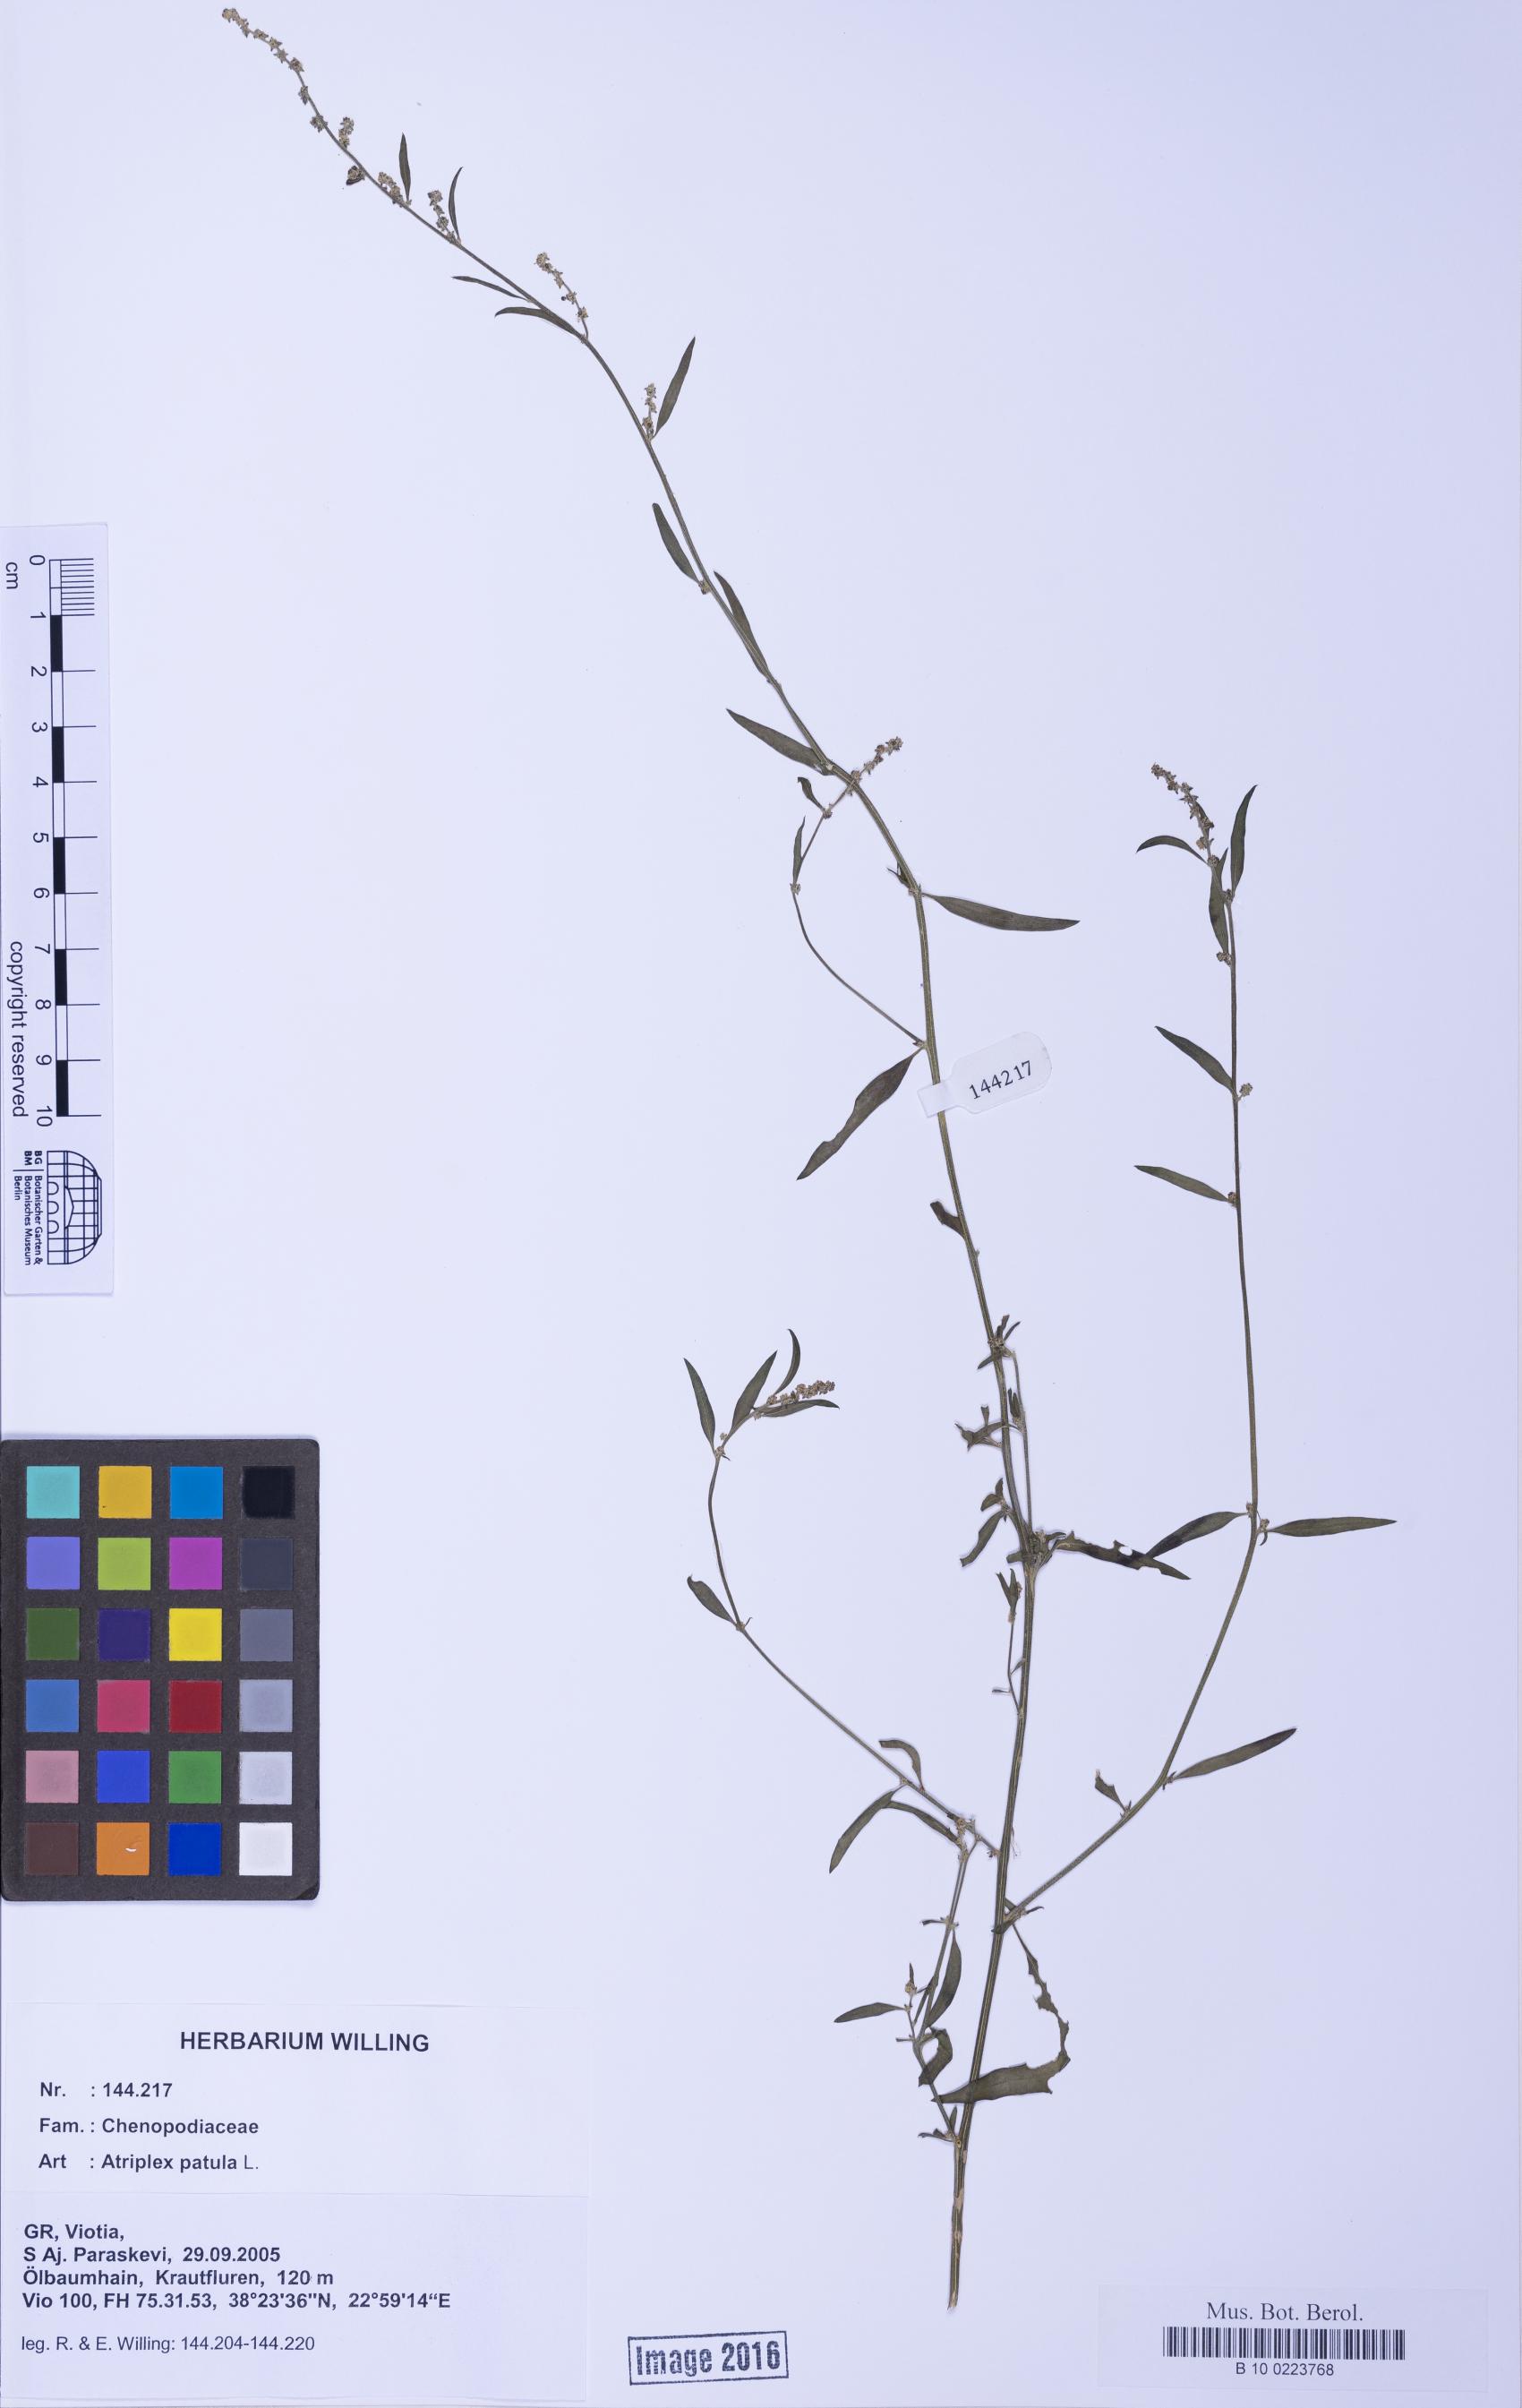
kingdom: Plantae
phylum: Tracheophyta
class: Magnoliopsida
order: Caryophyllales
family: Amaranthaceae
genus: Atriplex
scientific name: Atriplex patula
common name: Common orache
